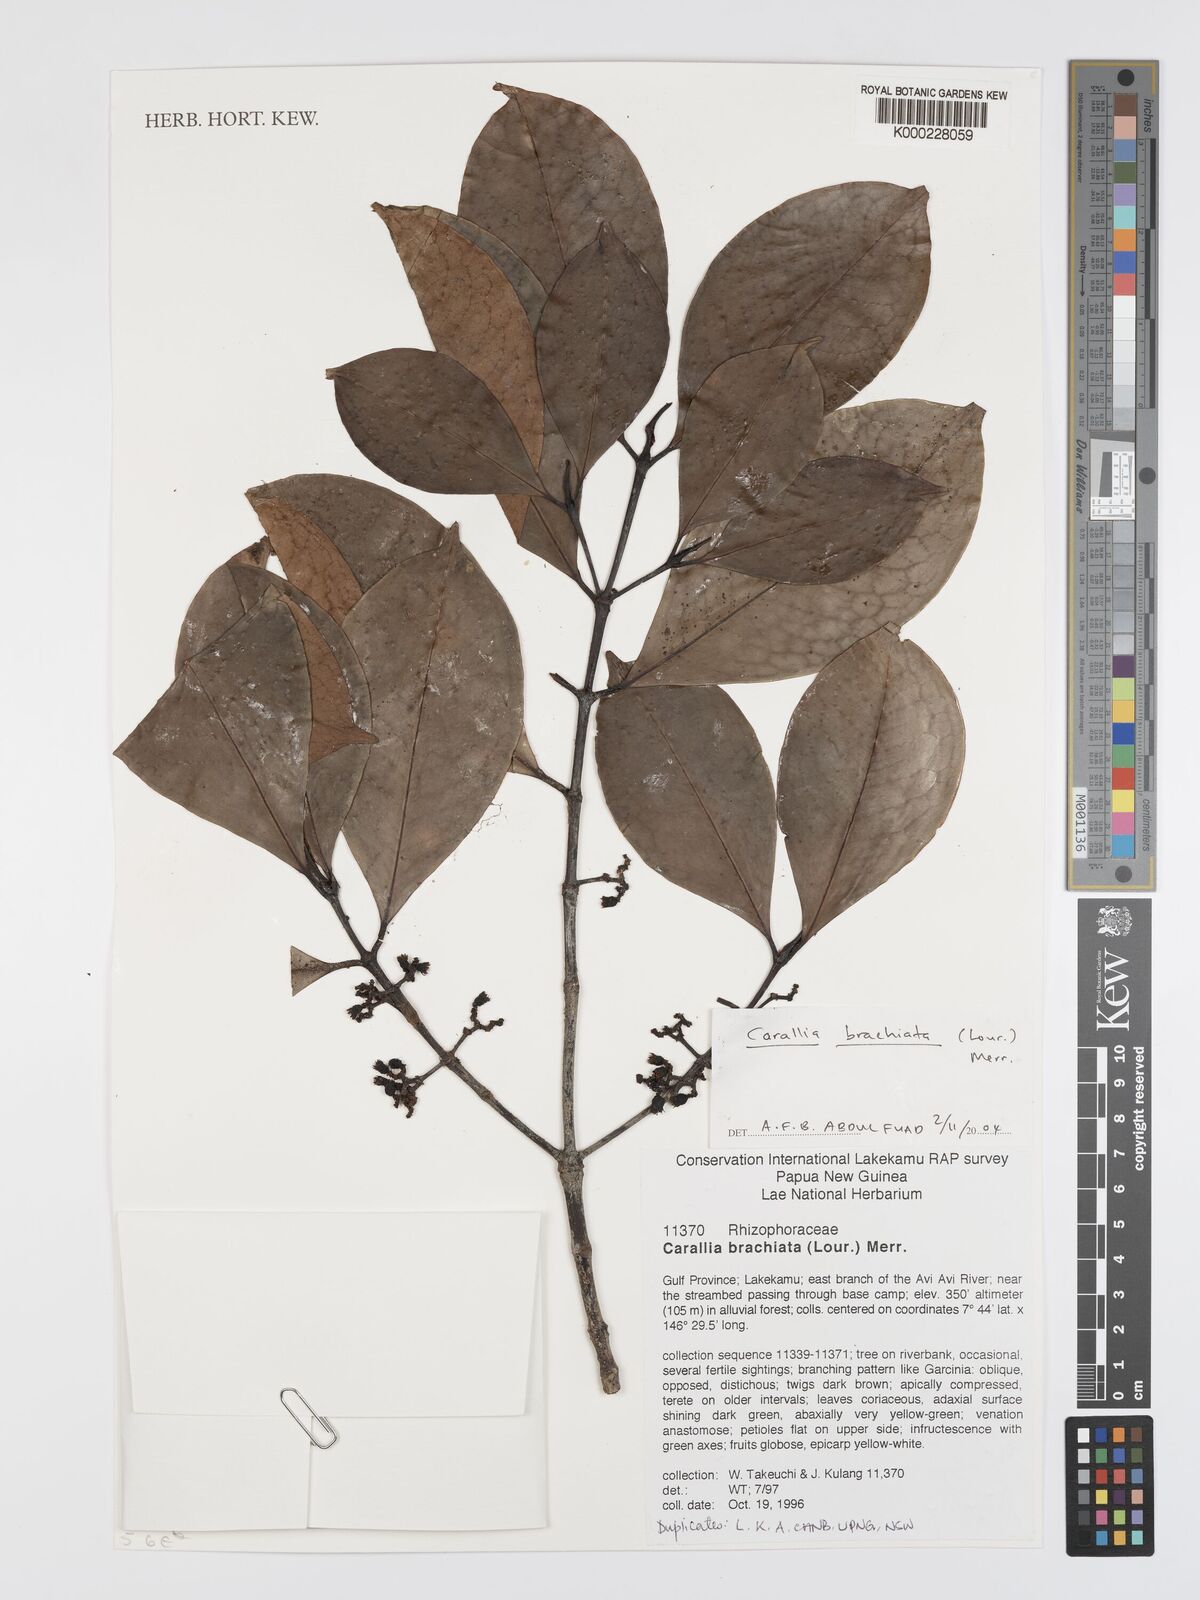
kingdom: Plantae
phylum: Tracheophyta
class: Magnoliopsida
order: Malpighiales
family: Rhizophoraceae
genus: Carallia
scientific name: Carallia brachiata
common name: Carallawood
